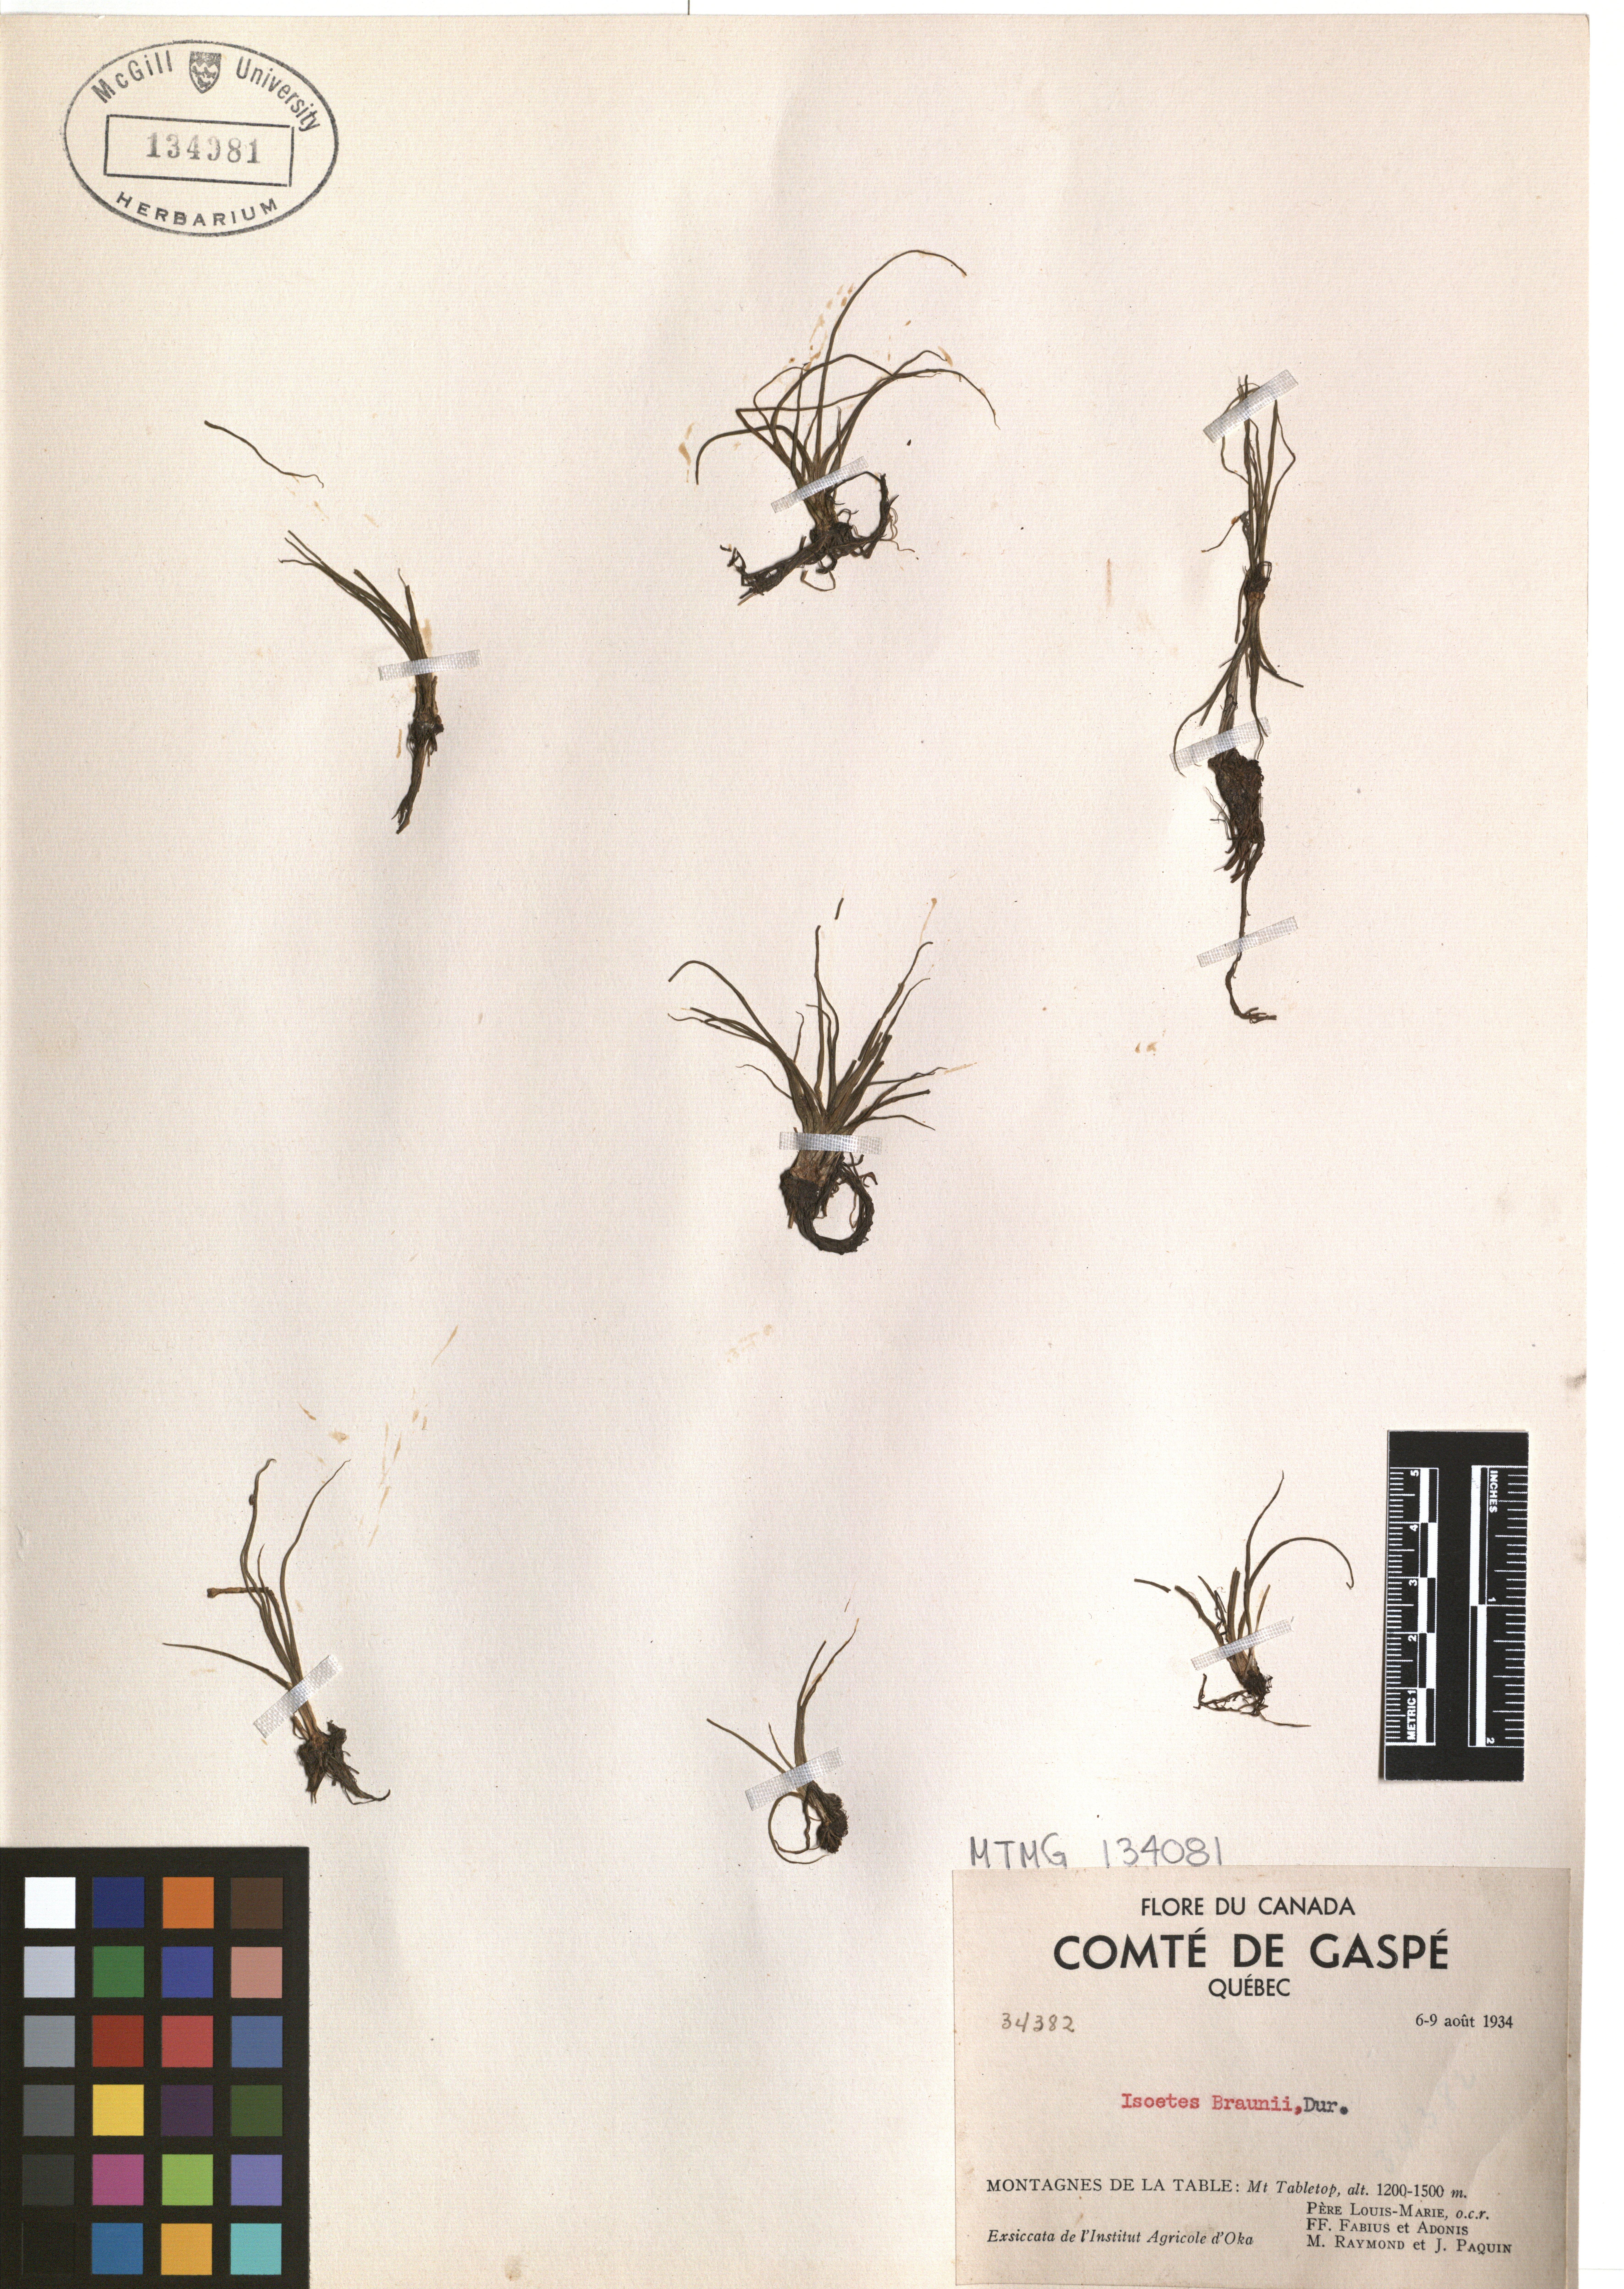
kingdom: Plantae
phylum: Tracheophyta
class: Lycopodiopsida
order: Isoetales
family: Isoetaceae
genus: Isoetes
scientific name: Isoetes echinospora
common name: Spring quillwort
